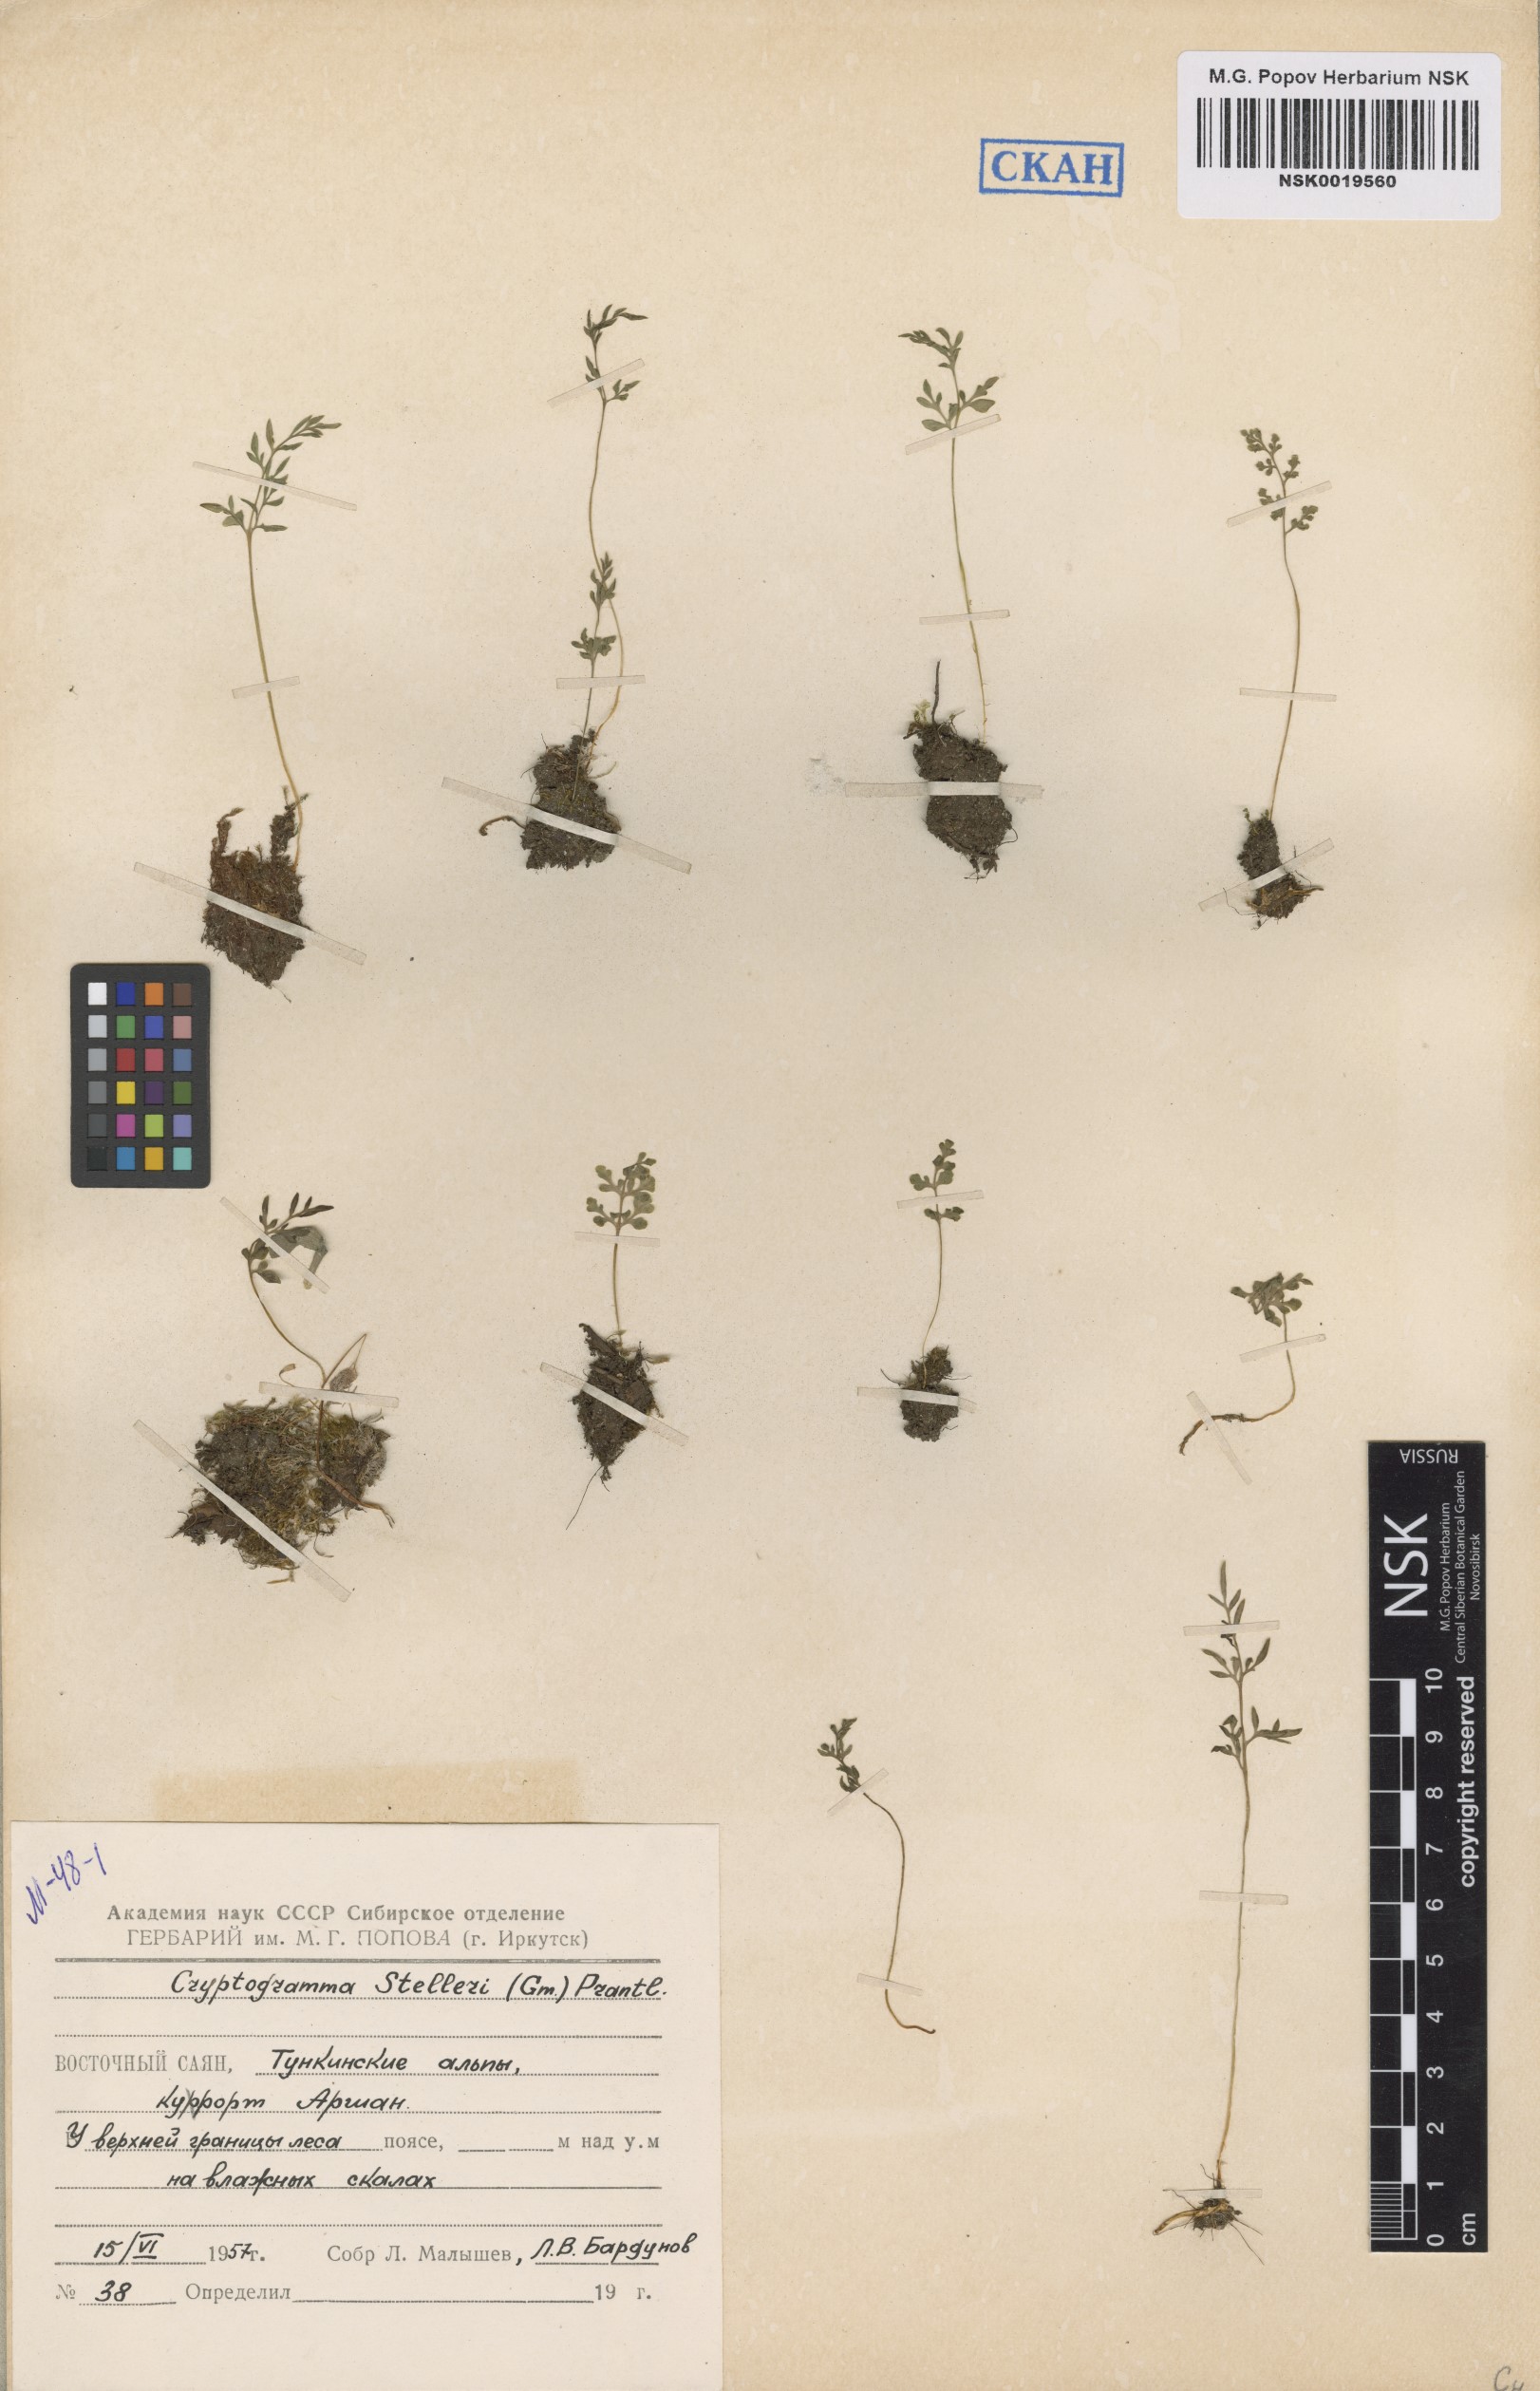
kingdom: Plantae
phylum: Tracheophyta
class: Polypodiopsida
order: Polypodiales
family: Pteridaceae
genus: Cryptogramma
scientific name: Cryptogramma stelleri
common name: Cliff-brake
